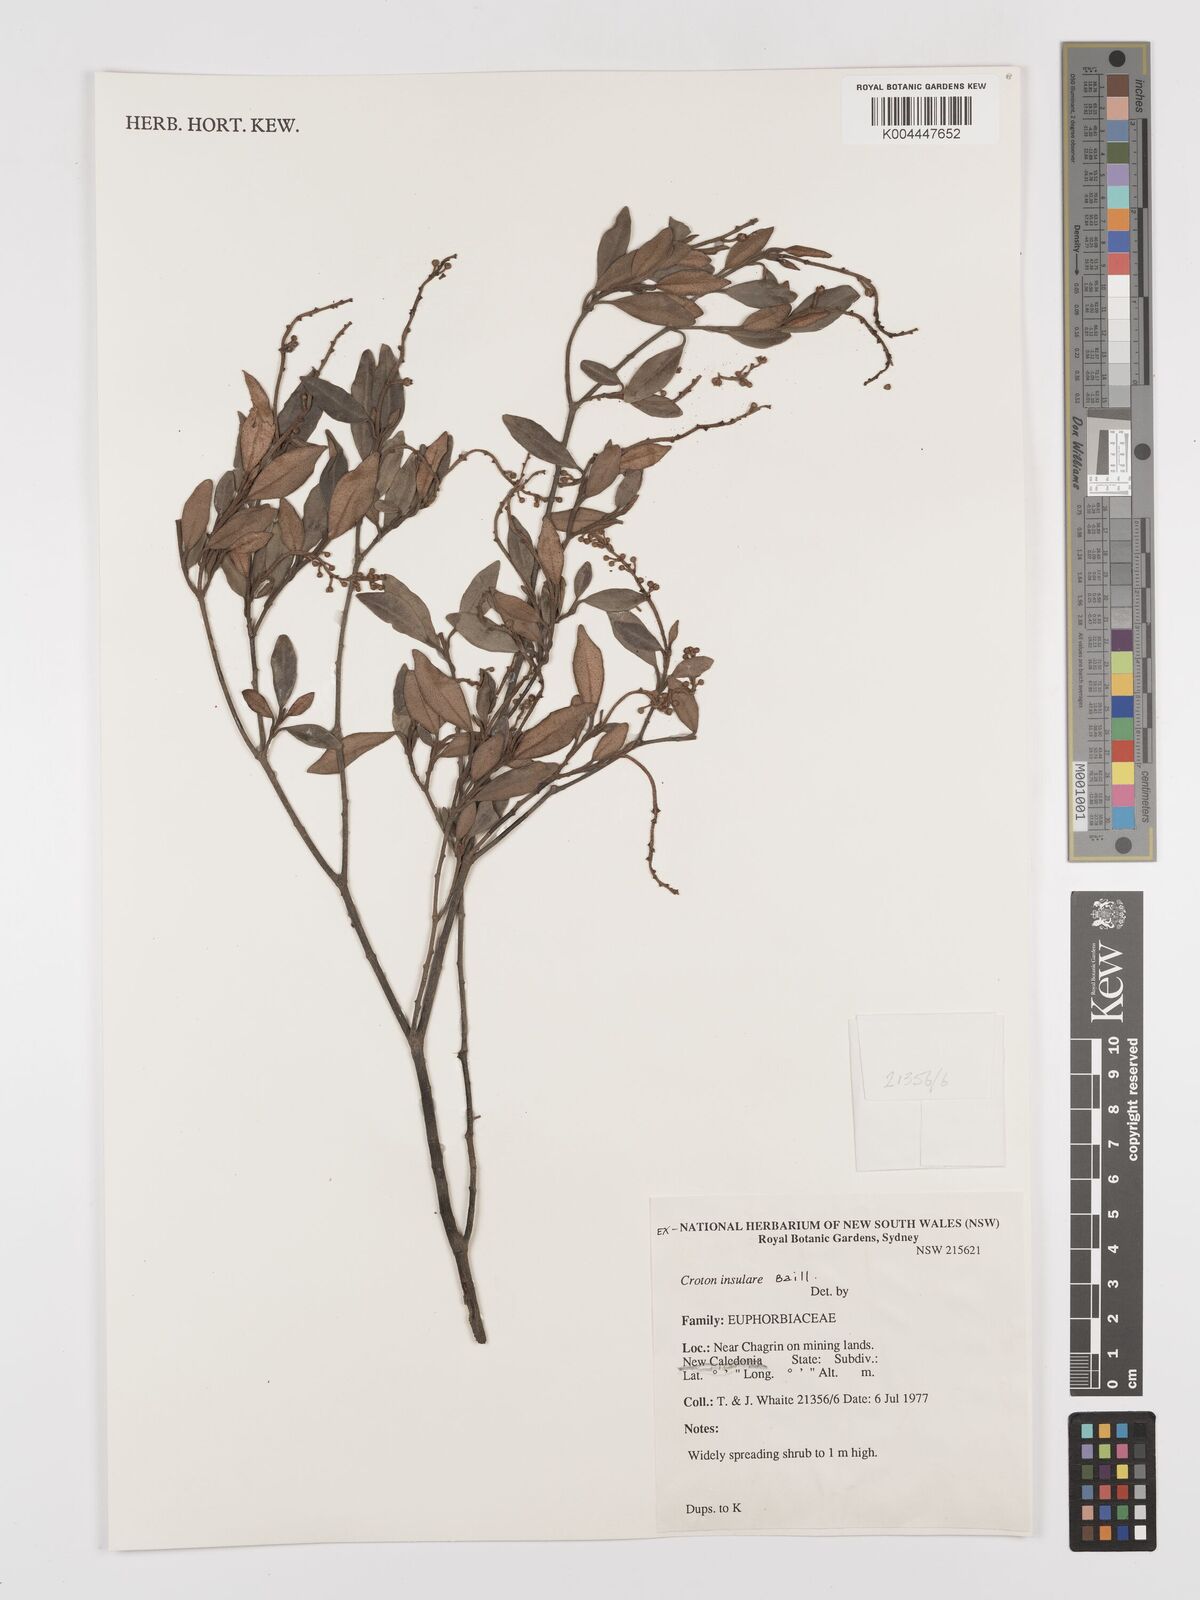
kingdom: Plantae
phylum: Tracheophyta
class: Magnoliopsida
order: Malpighiales
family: Euphorbiaceae
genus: Croton
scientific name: Croton insularis
